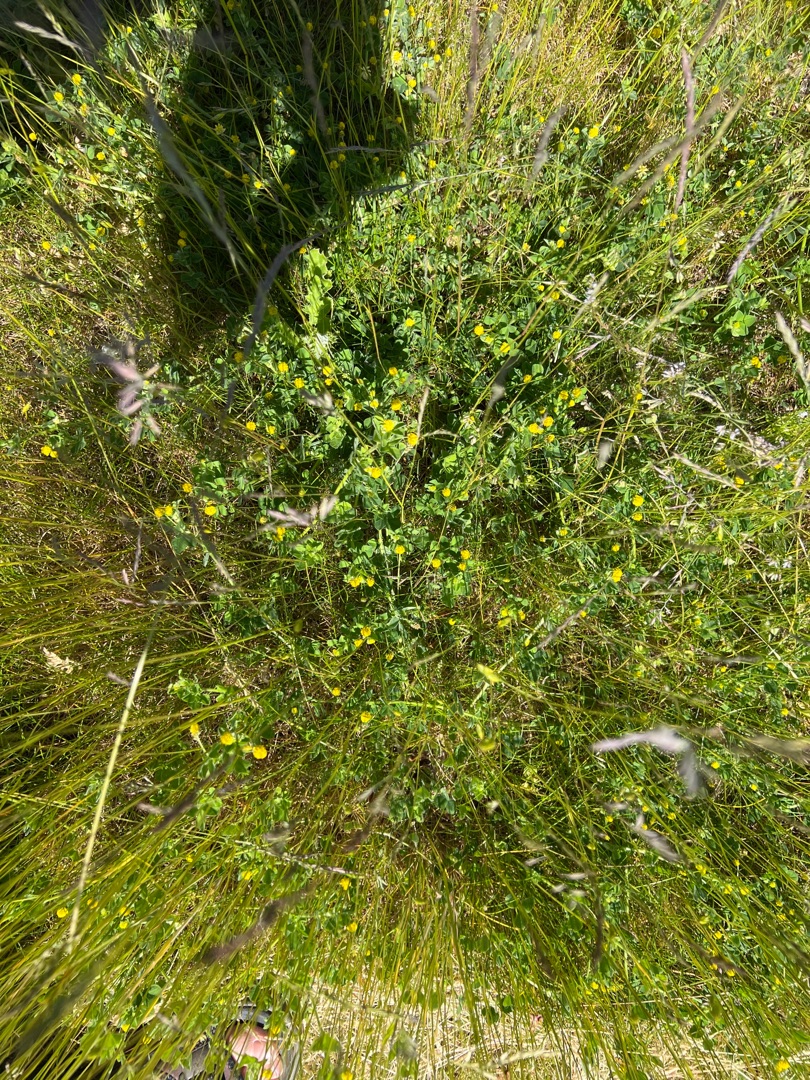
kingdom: Plantae
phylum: Tracheophyta
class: Magnoliopsida
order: Fabales
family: Fabaceae
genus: Medicago
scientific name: Medicago lupulina
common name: Humle-sneglebælg
